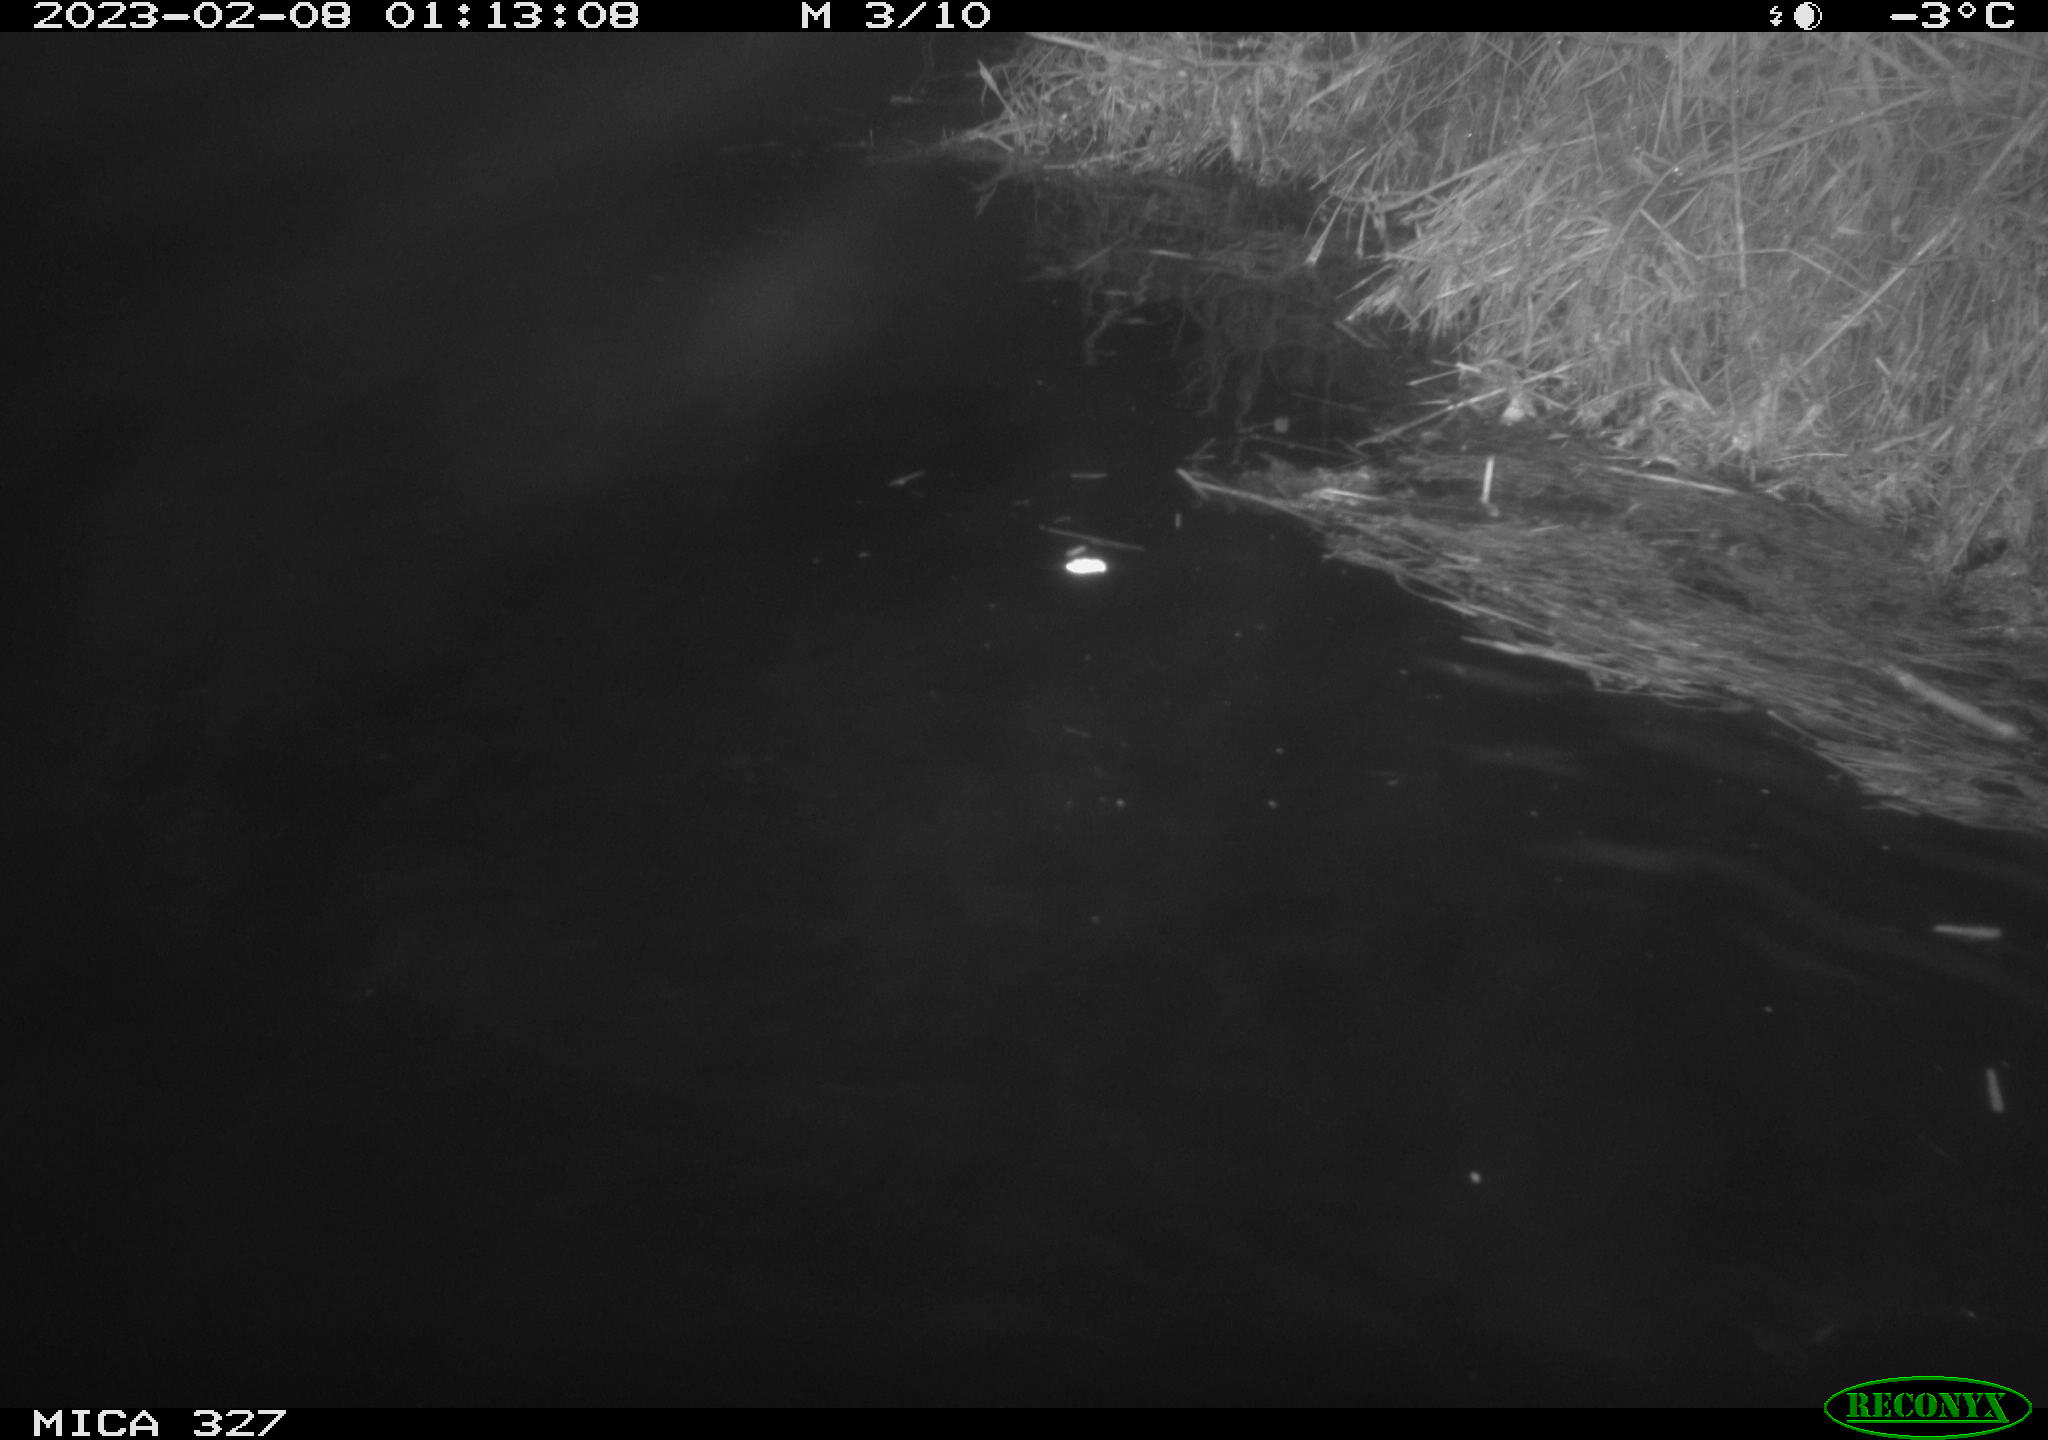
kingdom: Animalia
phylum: Chordata
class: Mammalia
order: Rodentia
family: Cricetidae
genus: Ondatra
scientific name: Ondatra zibethicus
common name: Muskrat
